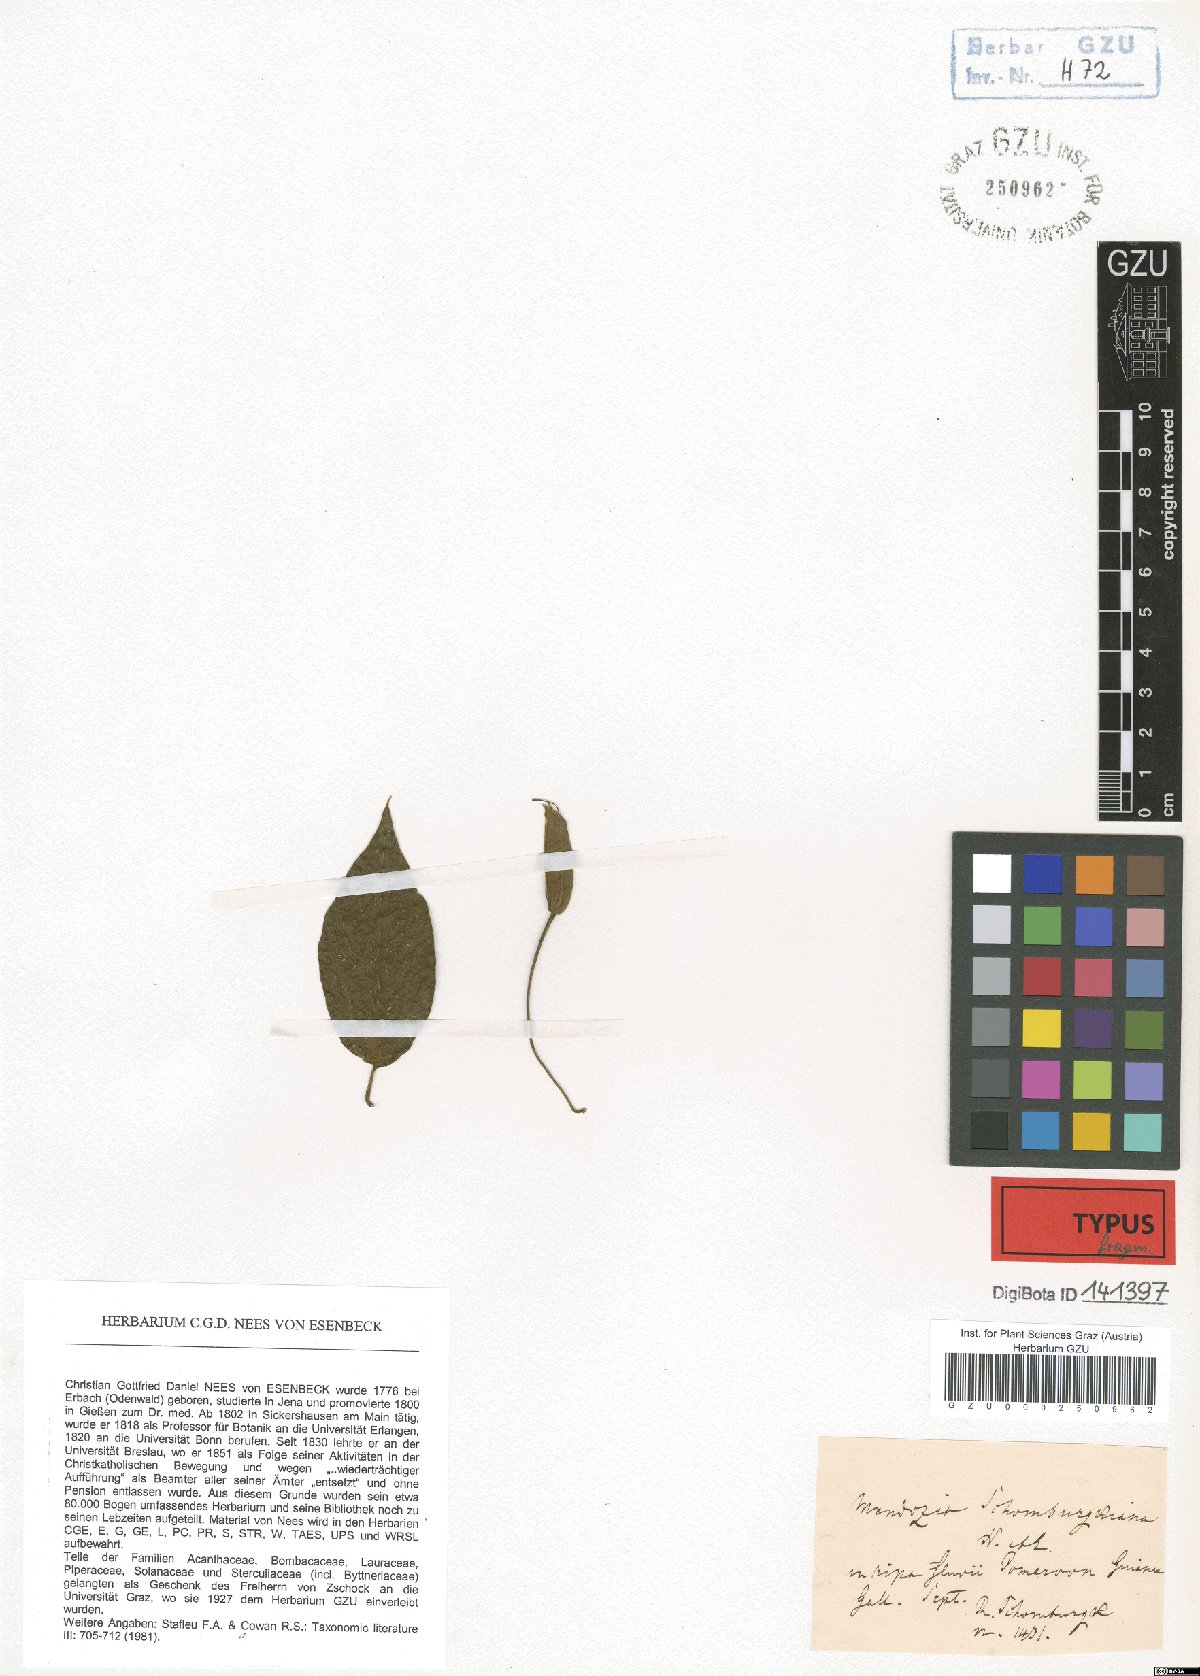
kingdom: Plantae
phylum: Tracheophyta
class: Magnoliopsida
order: Lamiales
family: Acanthaceae
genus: Mendoncia
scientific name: Mendoncia hoffmannseggiana
